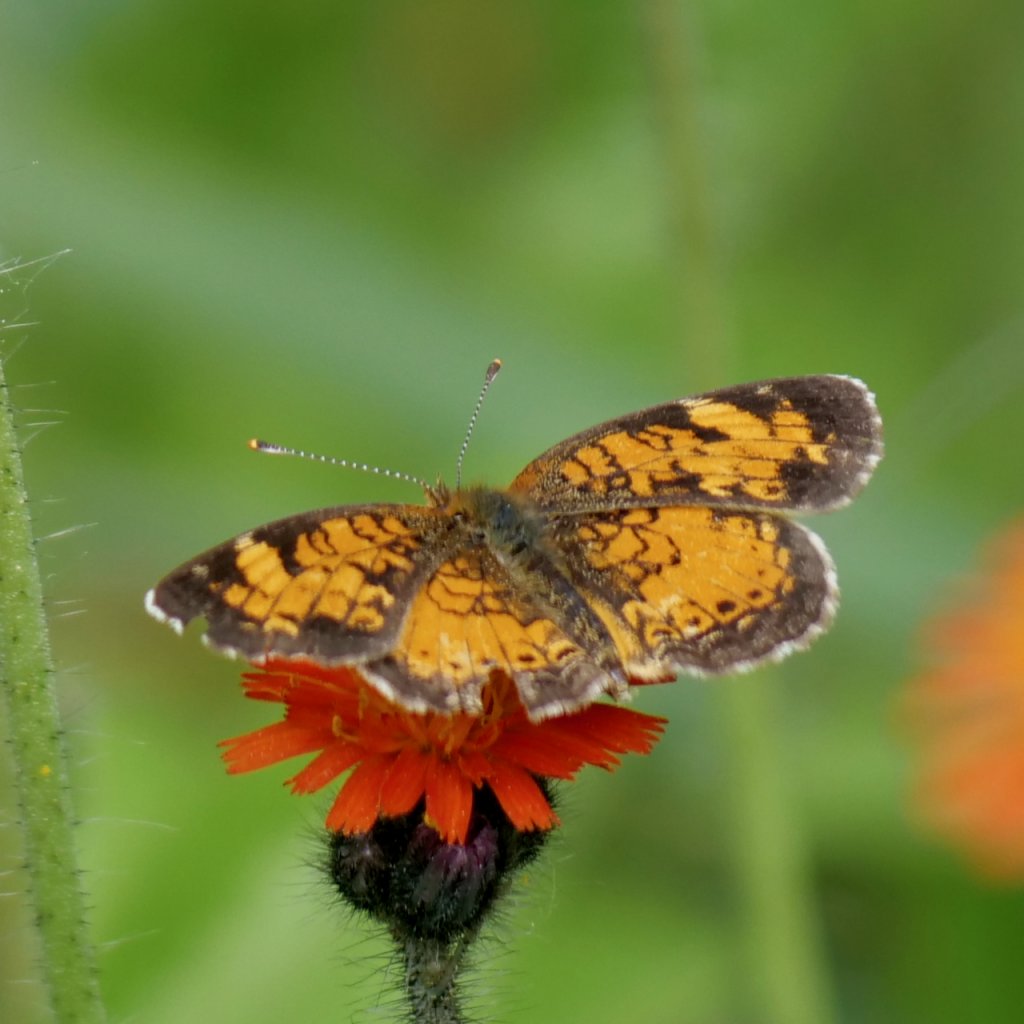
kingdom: Animalia
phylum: Arthropoda
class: Insecta
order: Lepidoptera
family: Nymphalidae
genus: Phyciodes
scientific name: Phyciodes tharos
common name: Northern Crescent
